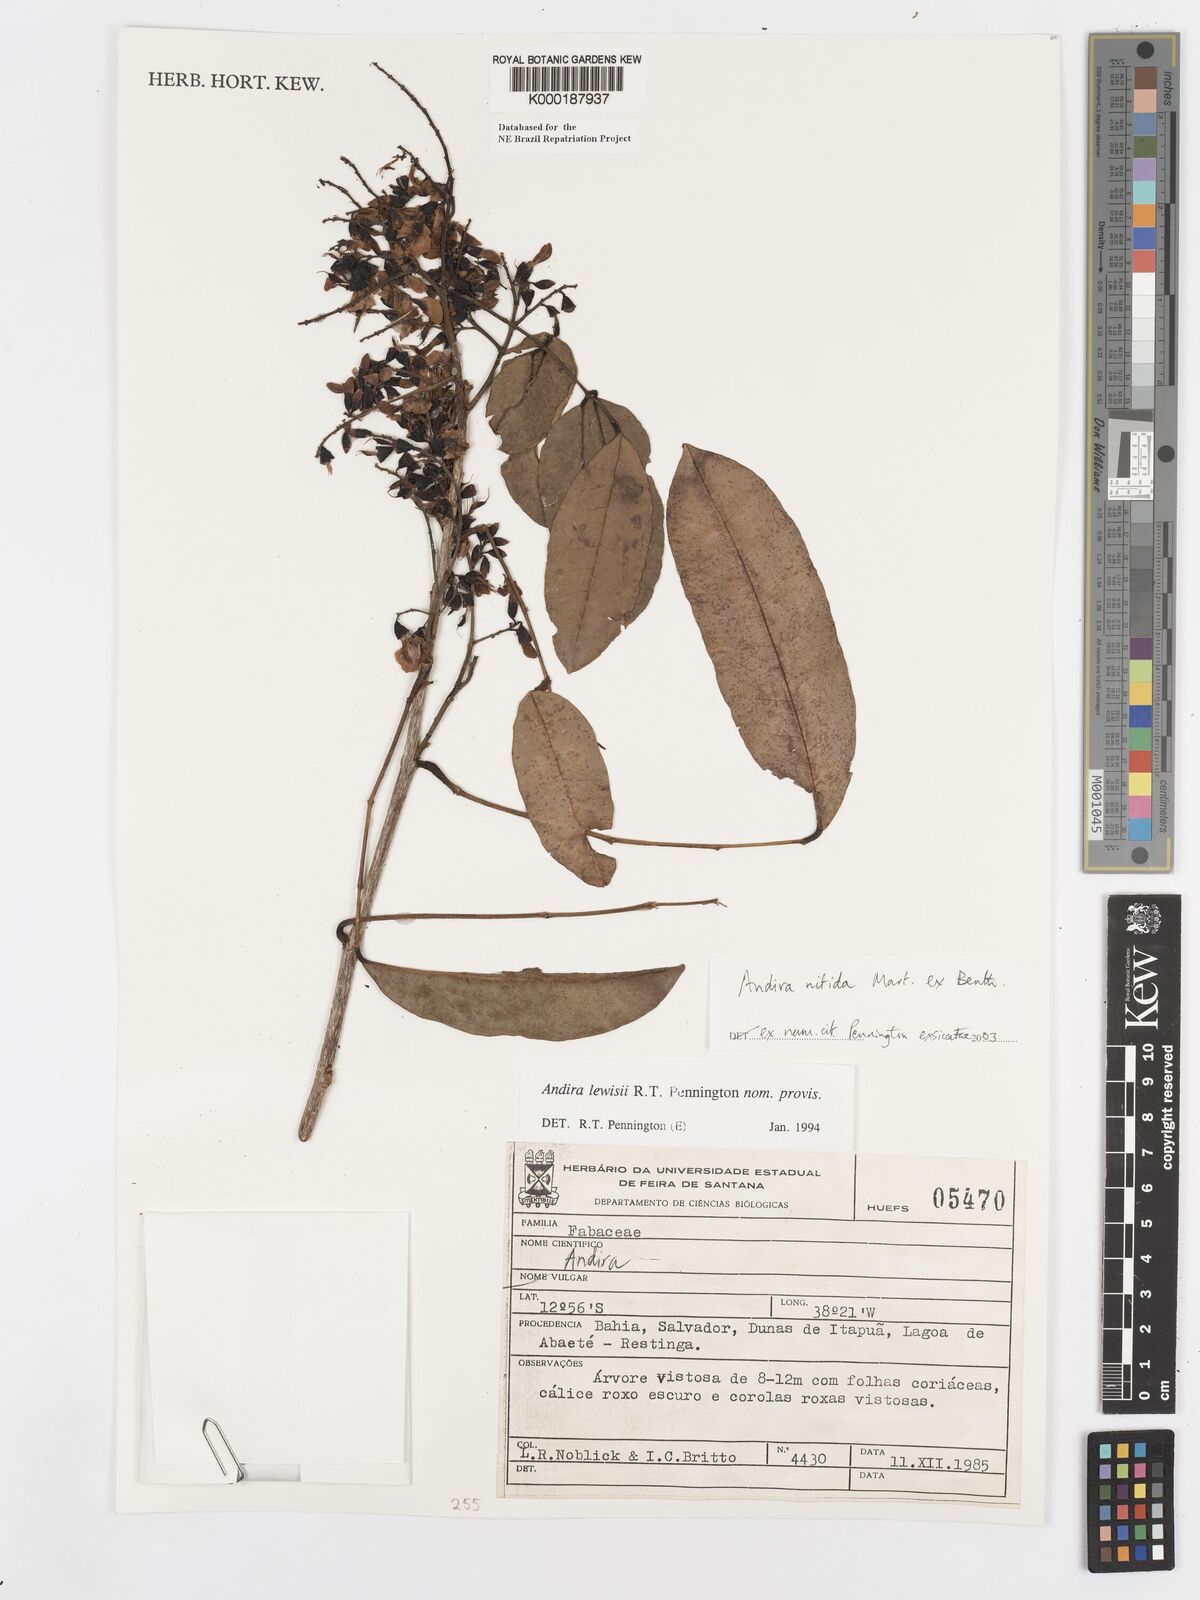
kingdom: Plantae
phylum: Tracheophyta
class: Magnoliopsida
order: Fabales
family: Fabaceae
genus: Andira
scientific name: Andira nitida
